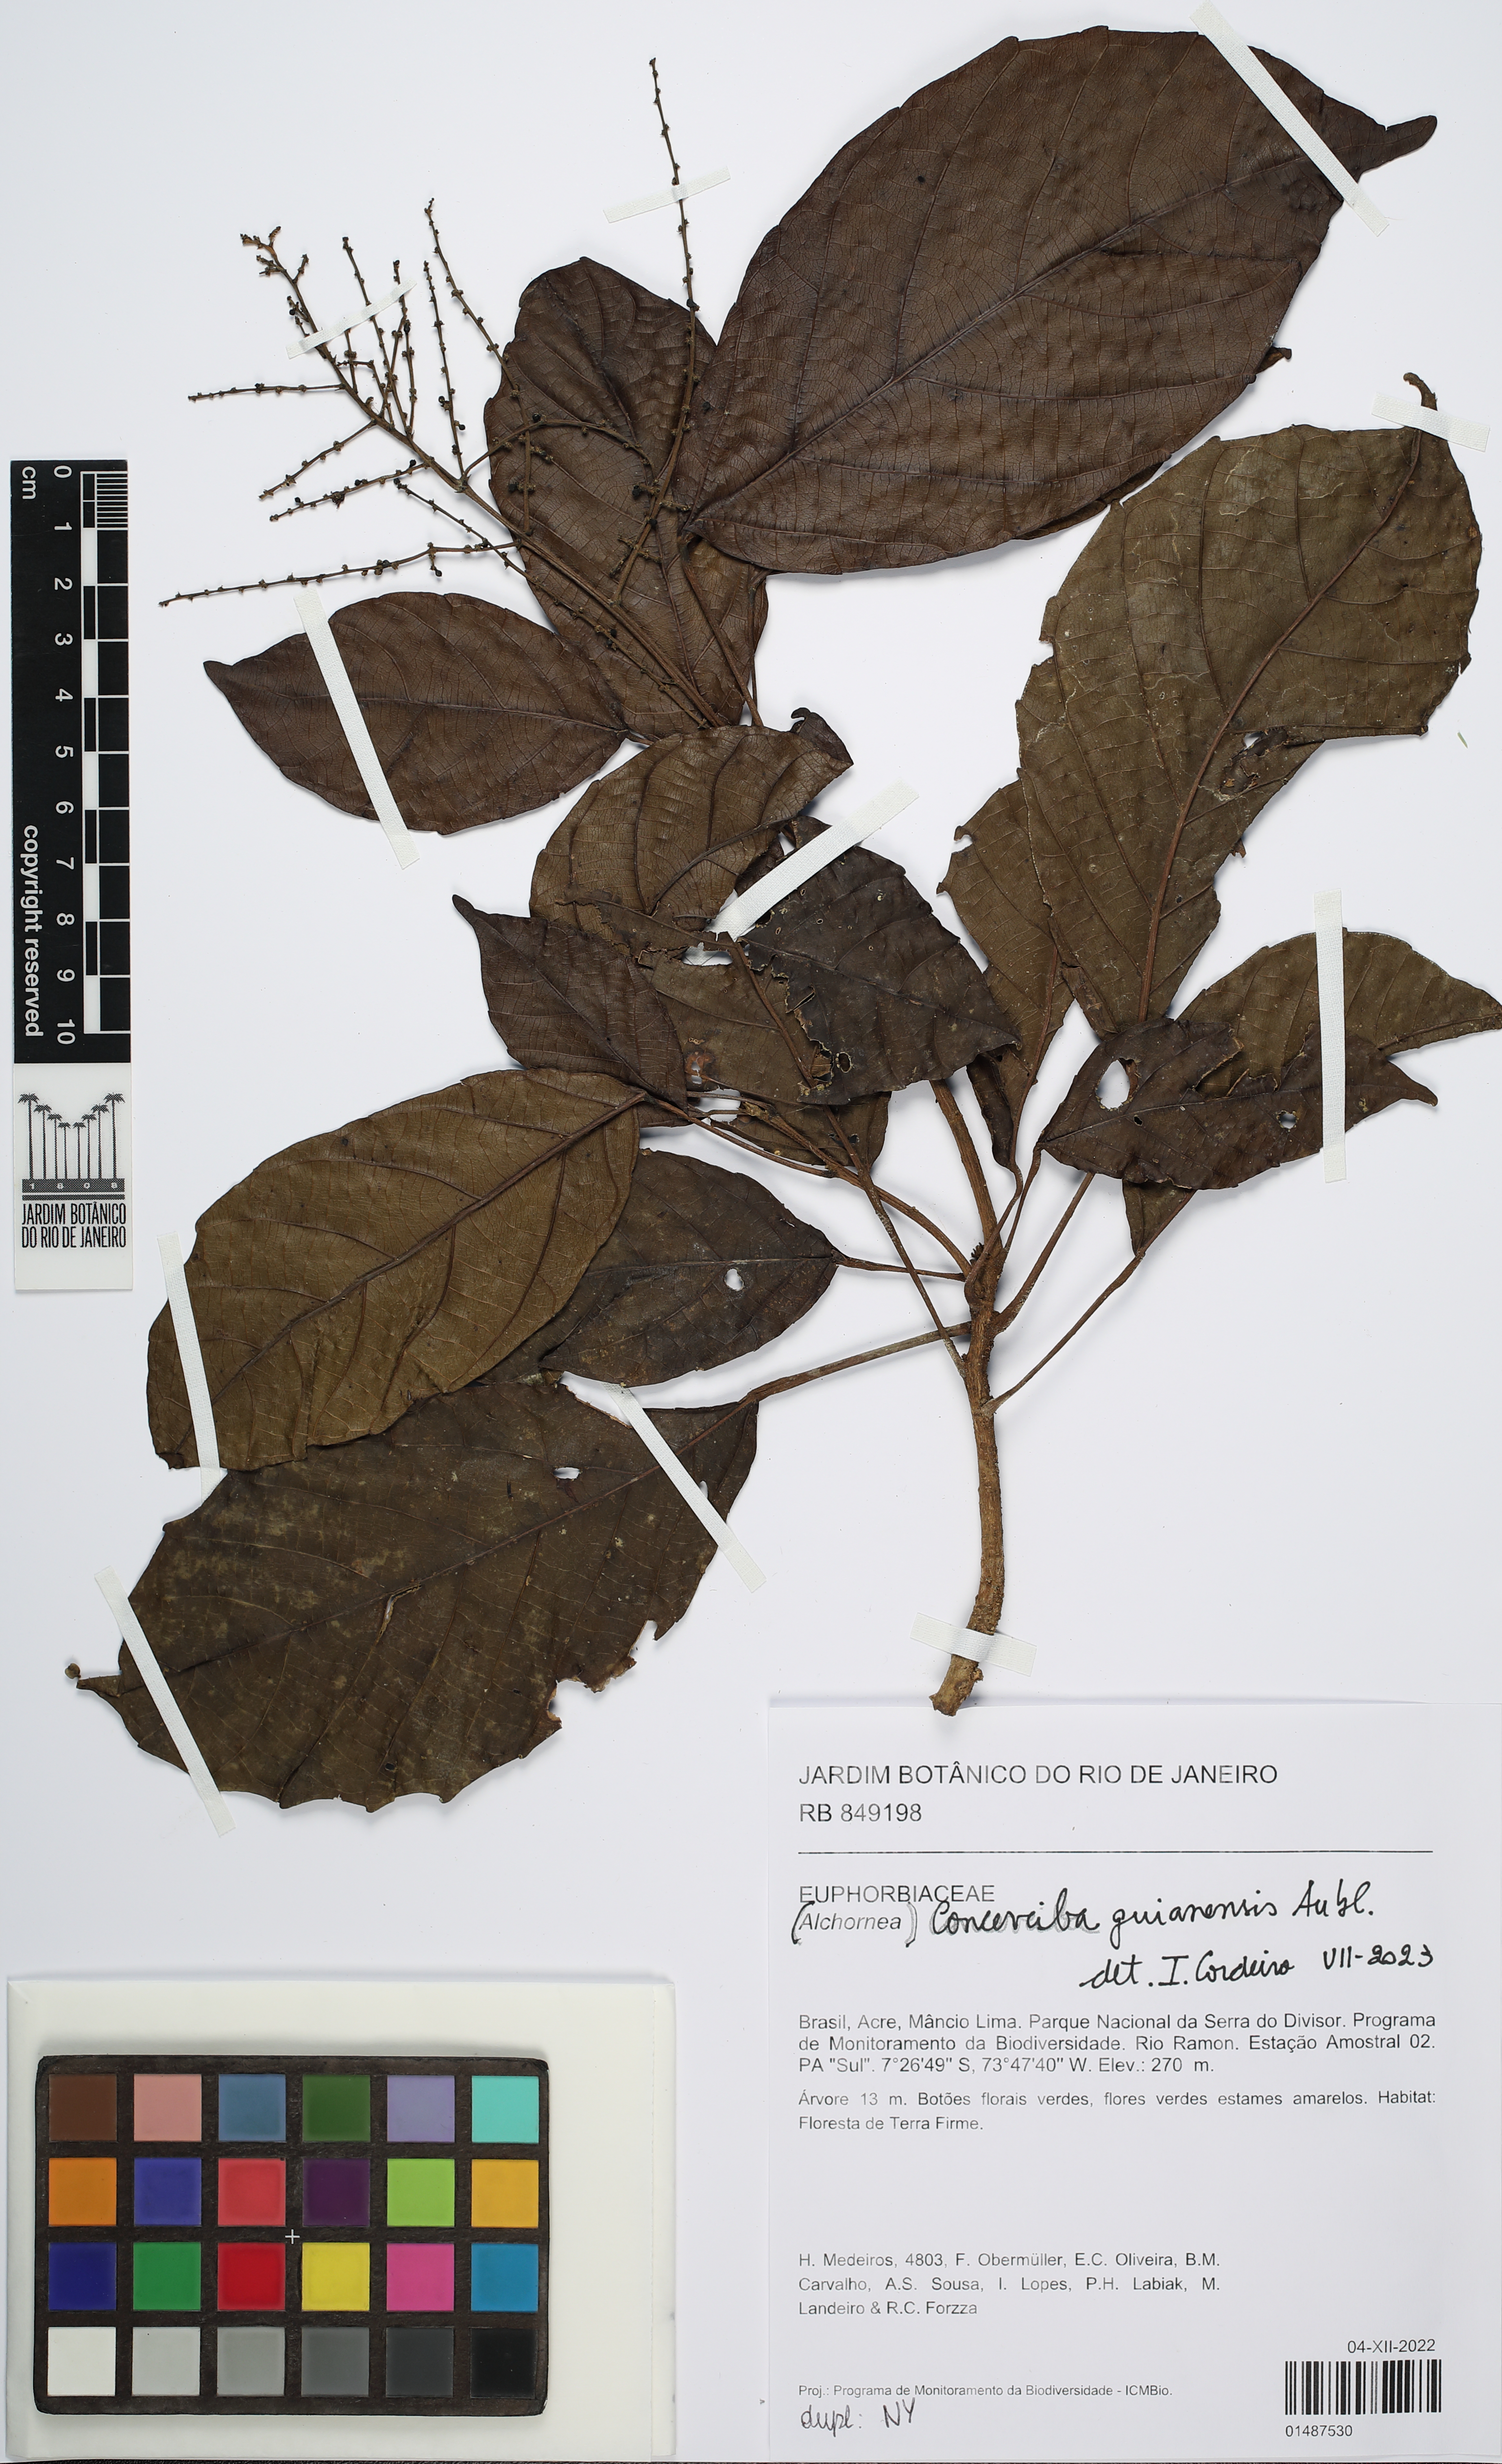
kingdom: Plantae
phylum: Tracheophyta
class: Magnoliopsida
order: Malpighiales
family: Euphorbiaceae
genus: Conceveiba
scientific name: Conceveiba guianensis
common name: Poatoru
